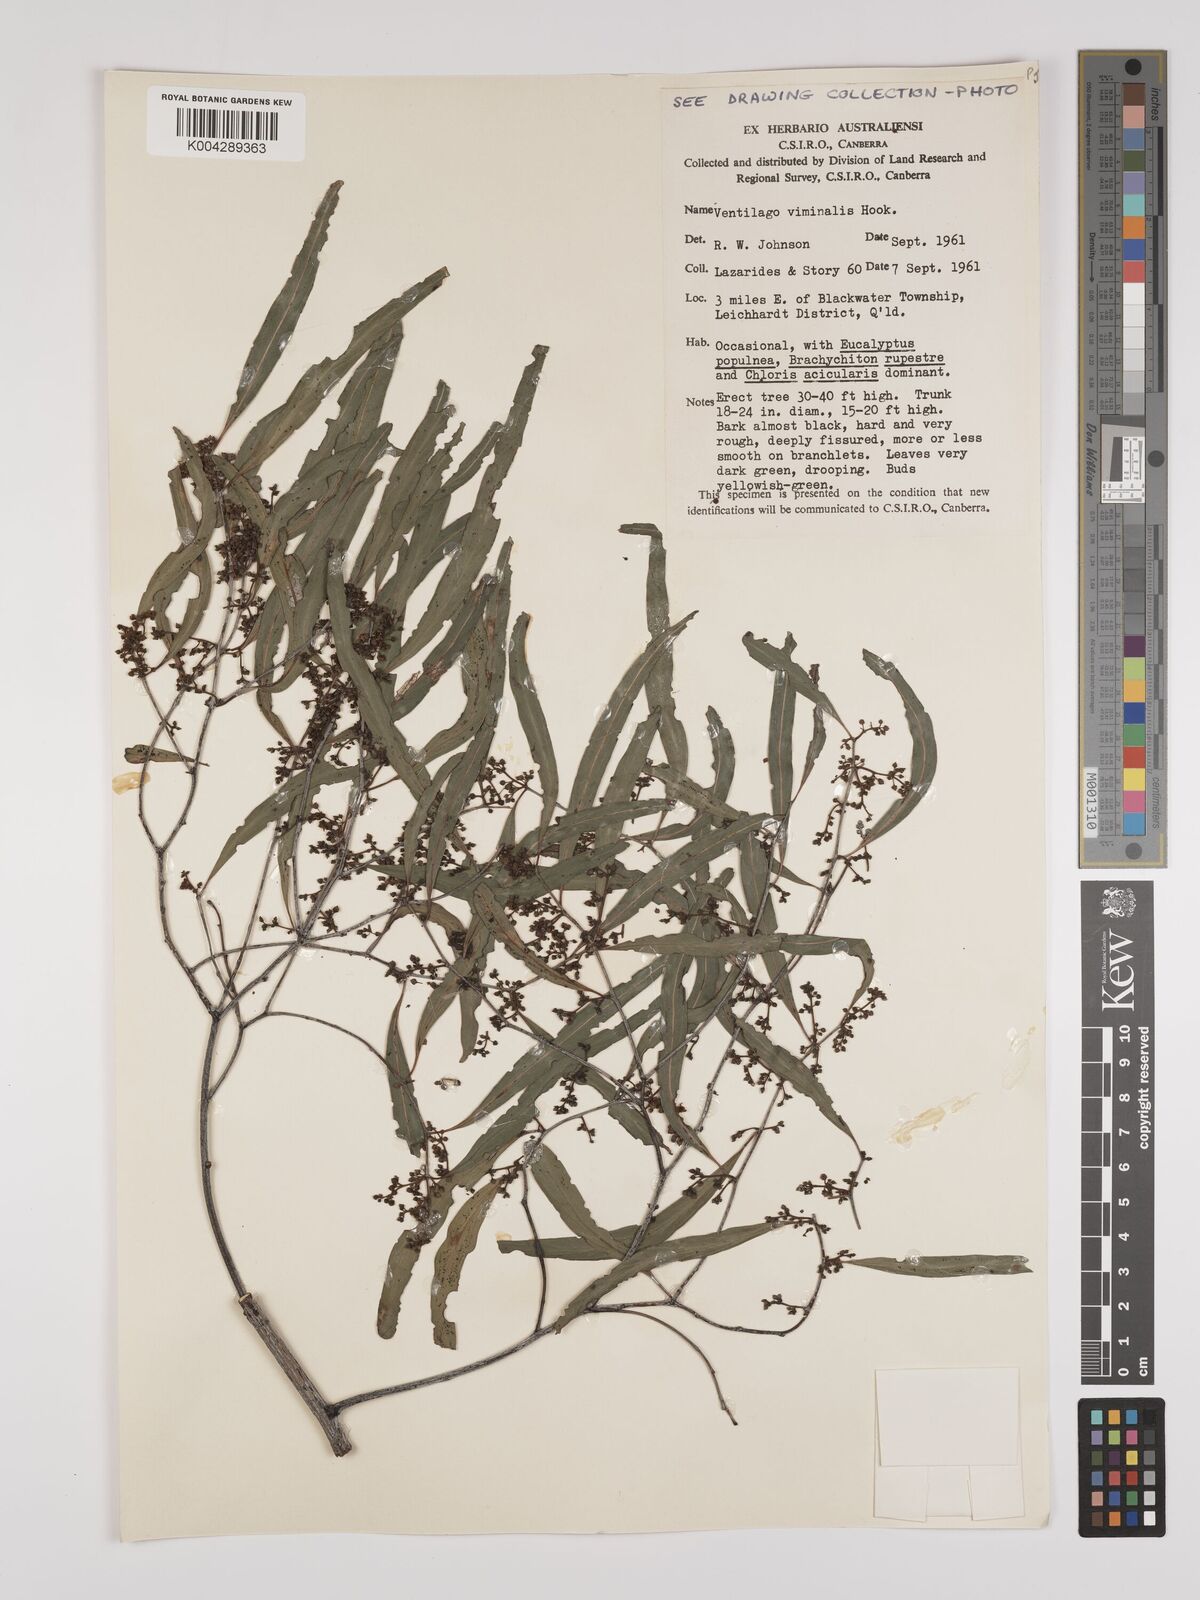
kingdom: Plantae
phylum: Tracheophyta
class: Magnoliopsida
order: Rosales
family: Rhamnaceae
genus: Ventilago
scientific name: Ventilago viminalis
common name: Medicine-bark
